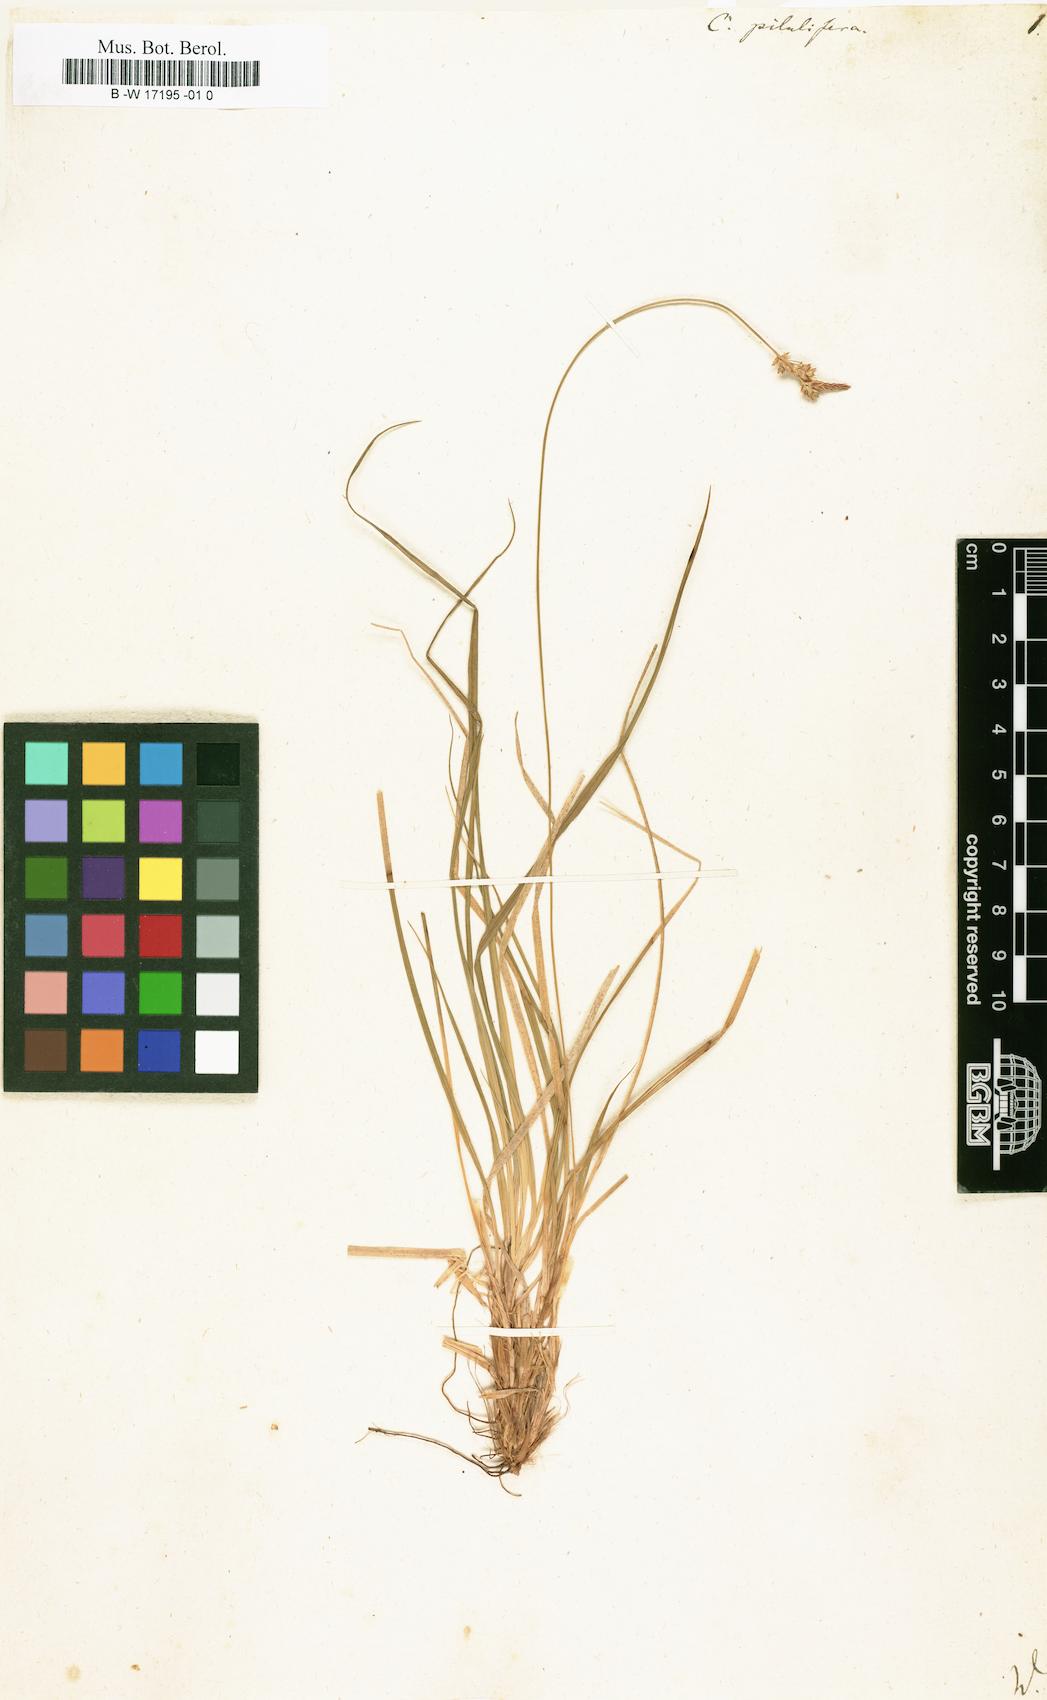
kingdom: Plantae
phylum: Tracheophyta
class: Liliopsida
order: Poales
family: Cyperaceae
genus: Carex
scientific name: Carex pilulifera
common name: Pill sedge
